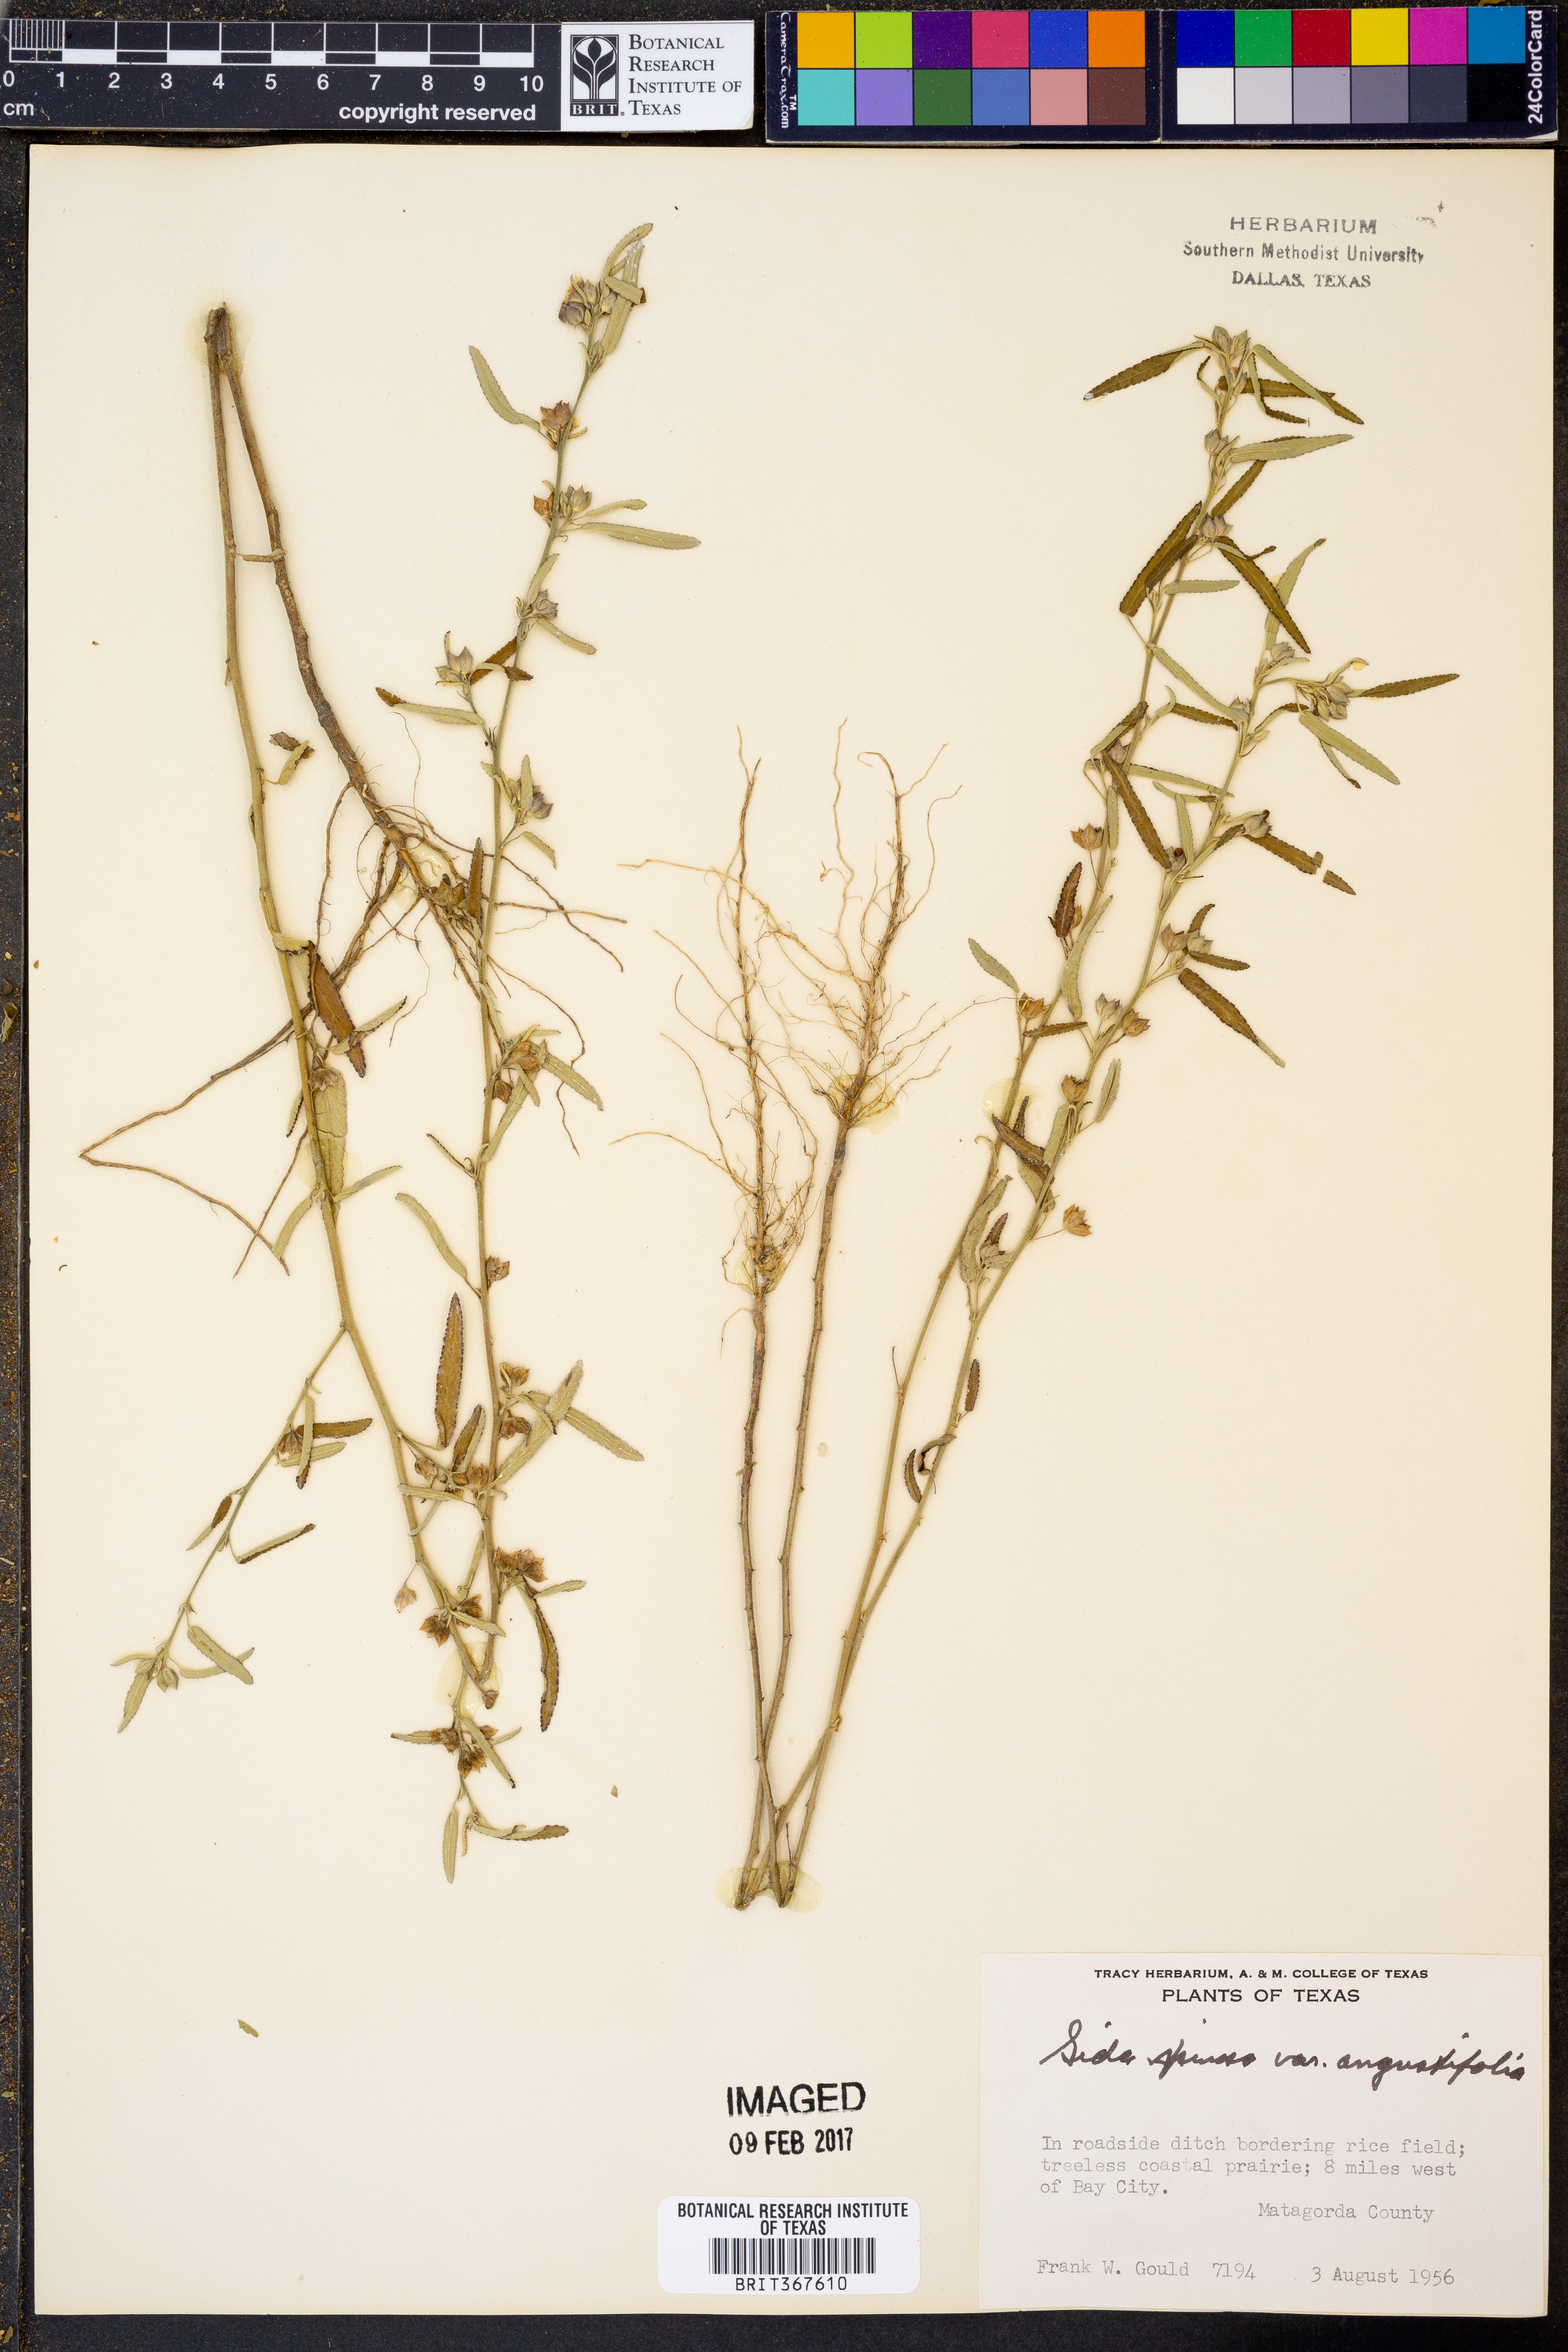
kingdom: Plantae
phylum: Tracheophyta
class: Magnoliopsida
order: Malvales
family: Malvaceae
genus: Sida
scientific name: Sida spinosa
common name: Prickly fanpetals
